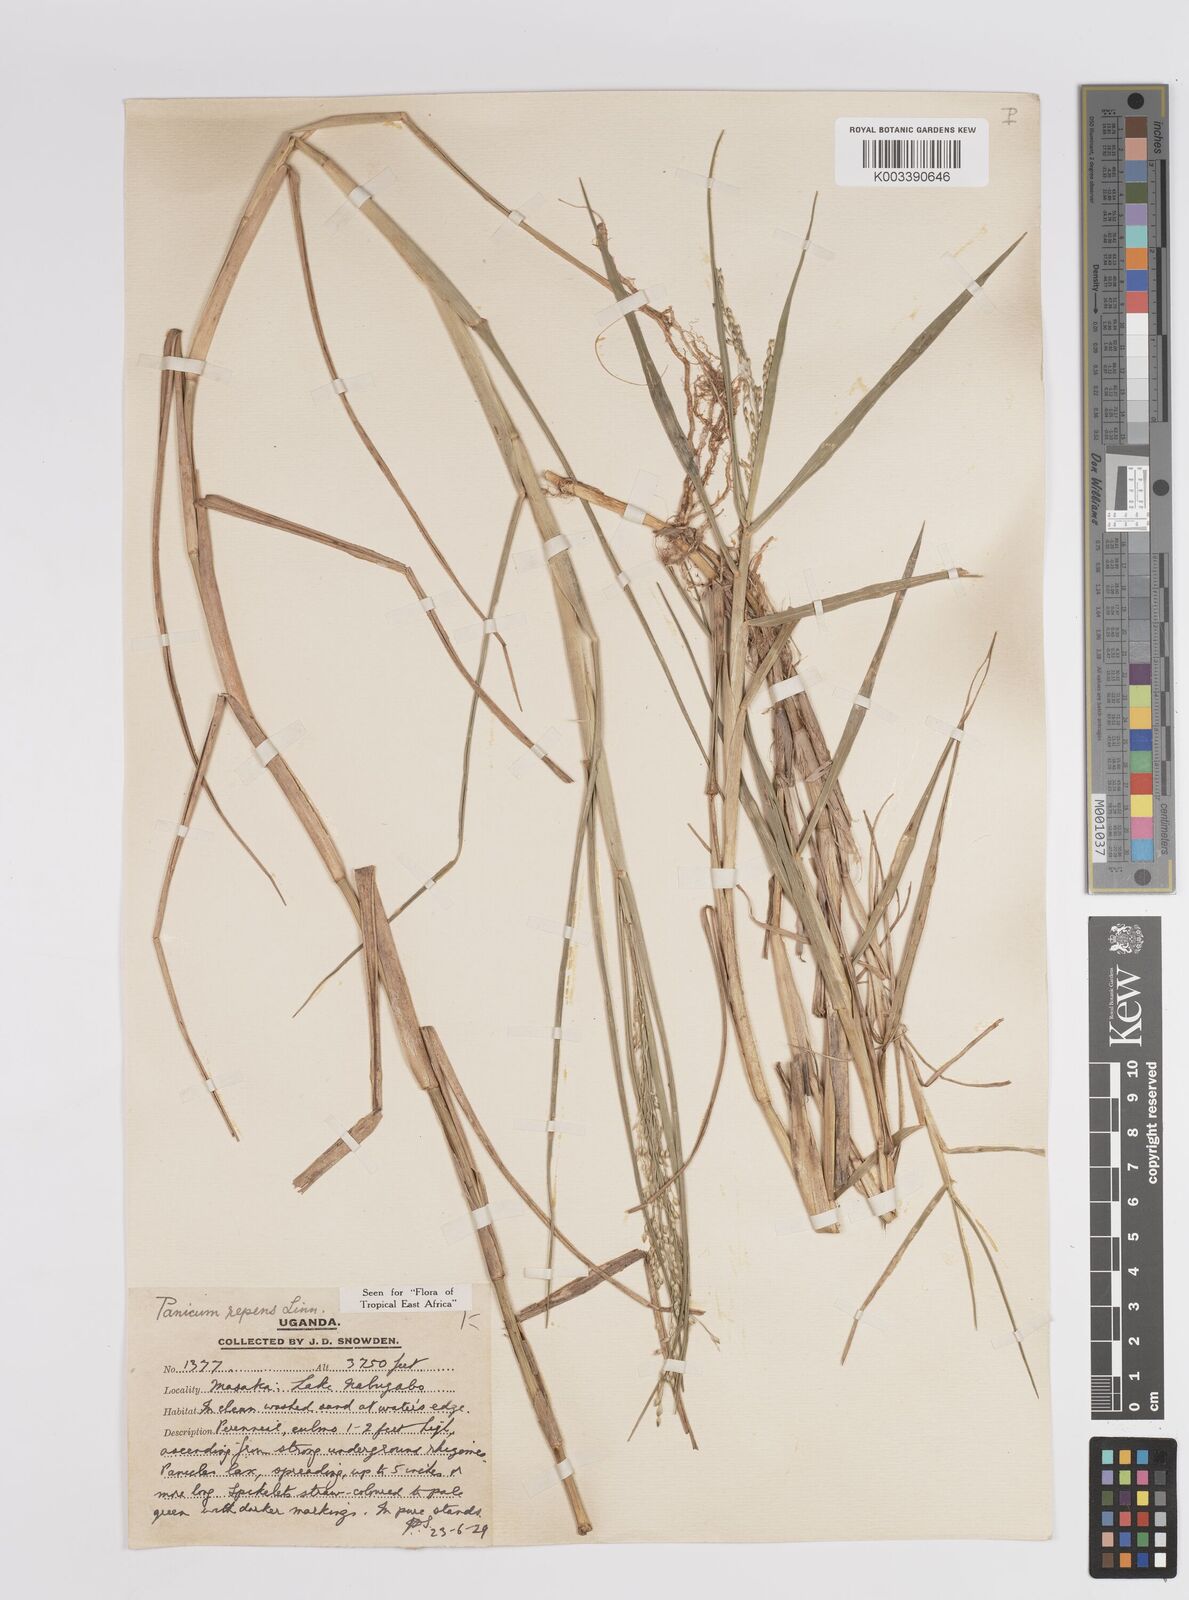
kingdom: Plantae
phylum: Tracheophyta
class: Liliopsida
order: Poales
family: Poaceae
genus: Panicum
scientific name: Panicum repens
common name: Torpedo grass
